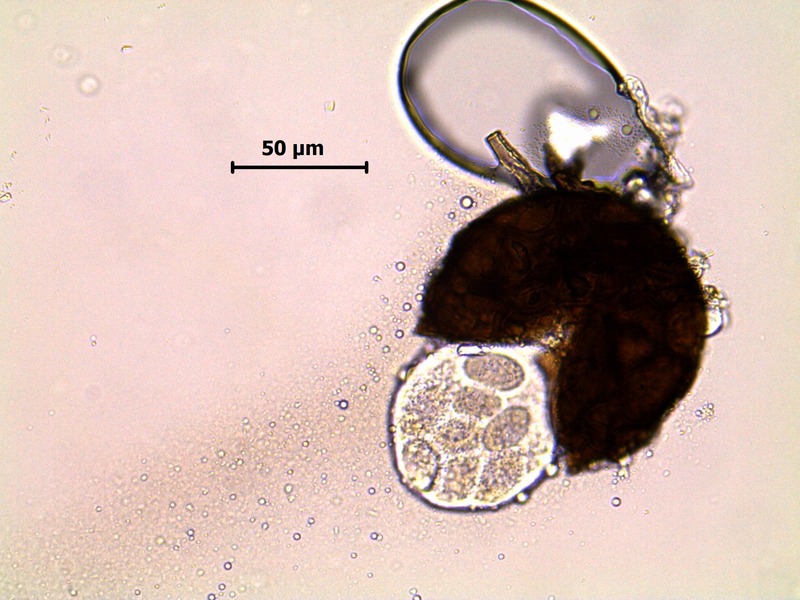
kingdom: Fungi
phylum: Ascomycota
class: Leotiomycetes
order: Helotiales
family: Erysiphaceae
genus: Podosphaera
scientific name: Podosphaera fusca
